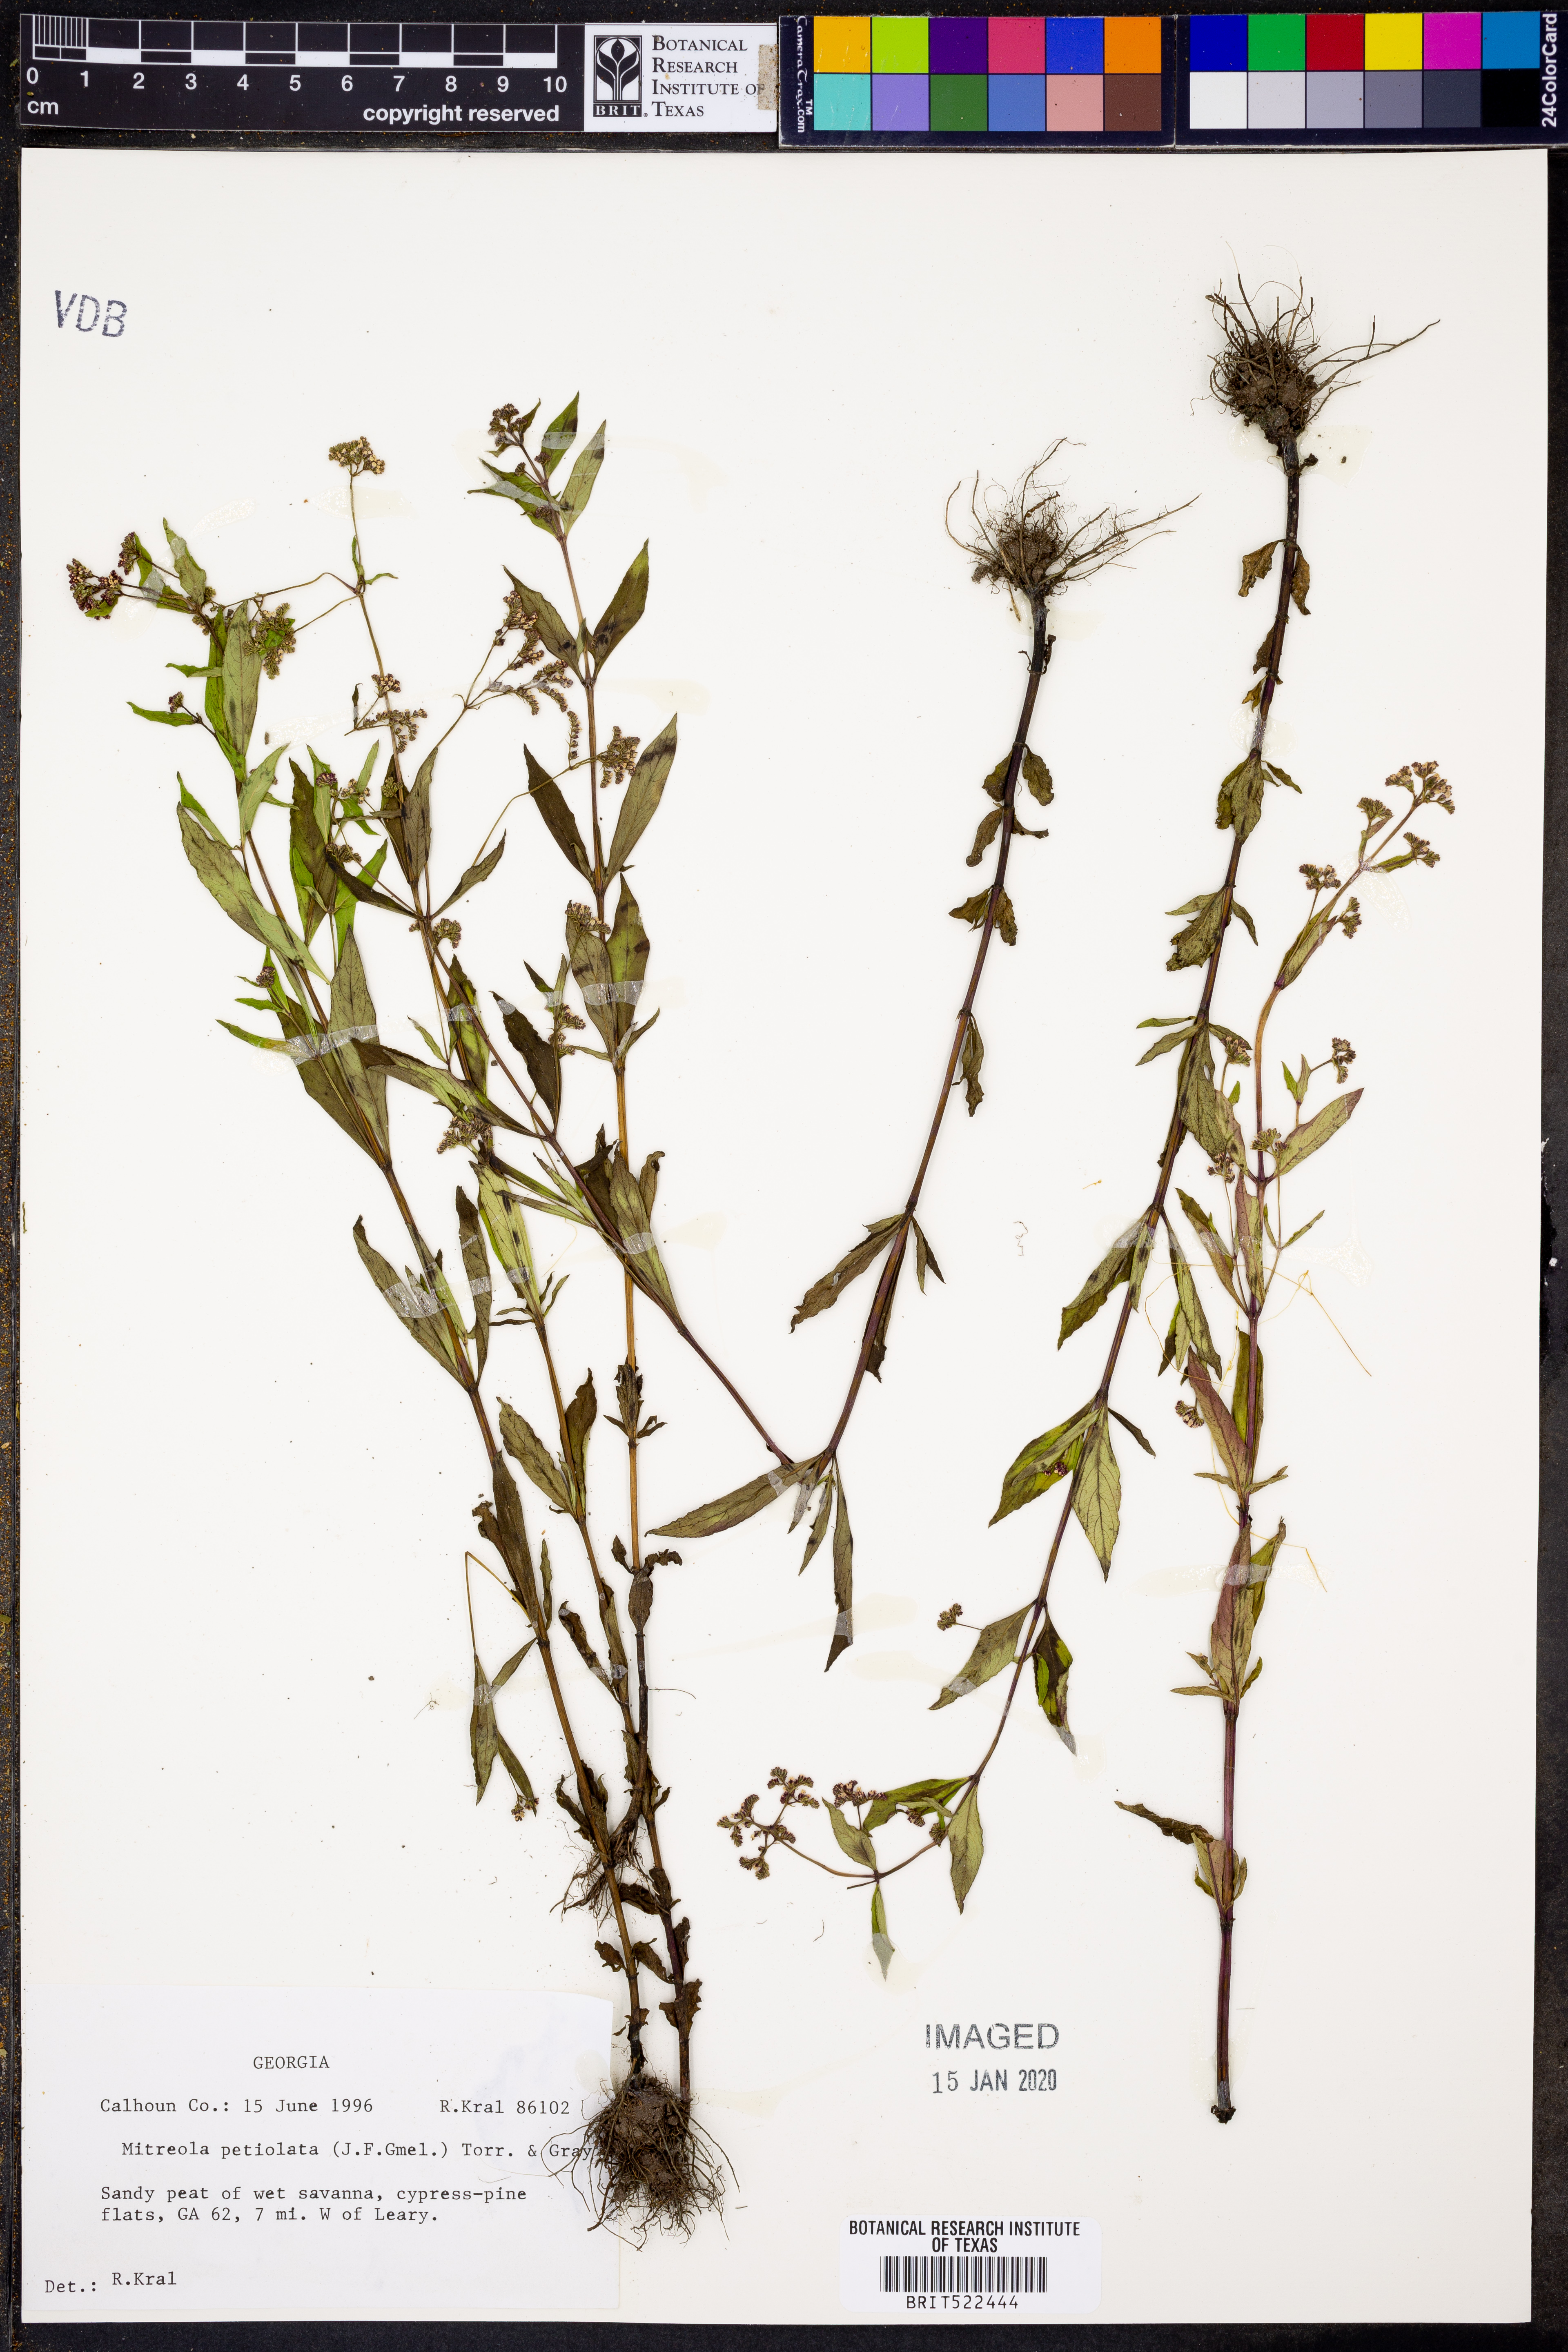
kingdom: Plantae
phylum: Tracheophyta
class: Magnoliopsida
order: Gentianales
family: Loganiaceae
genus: Mitreola
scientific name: Mitreola petiolata
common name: Lax hornpod
